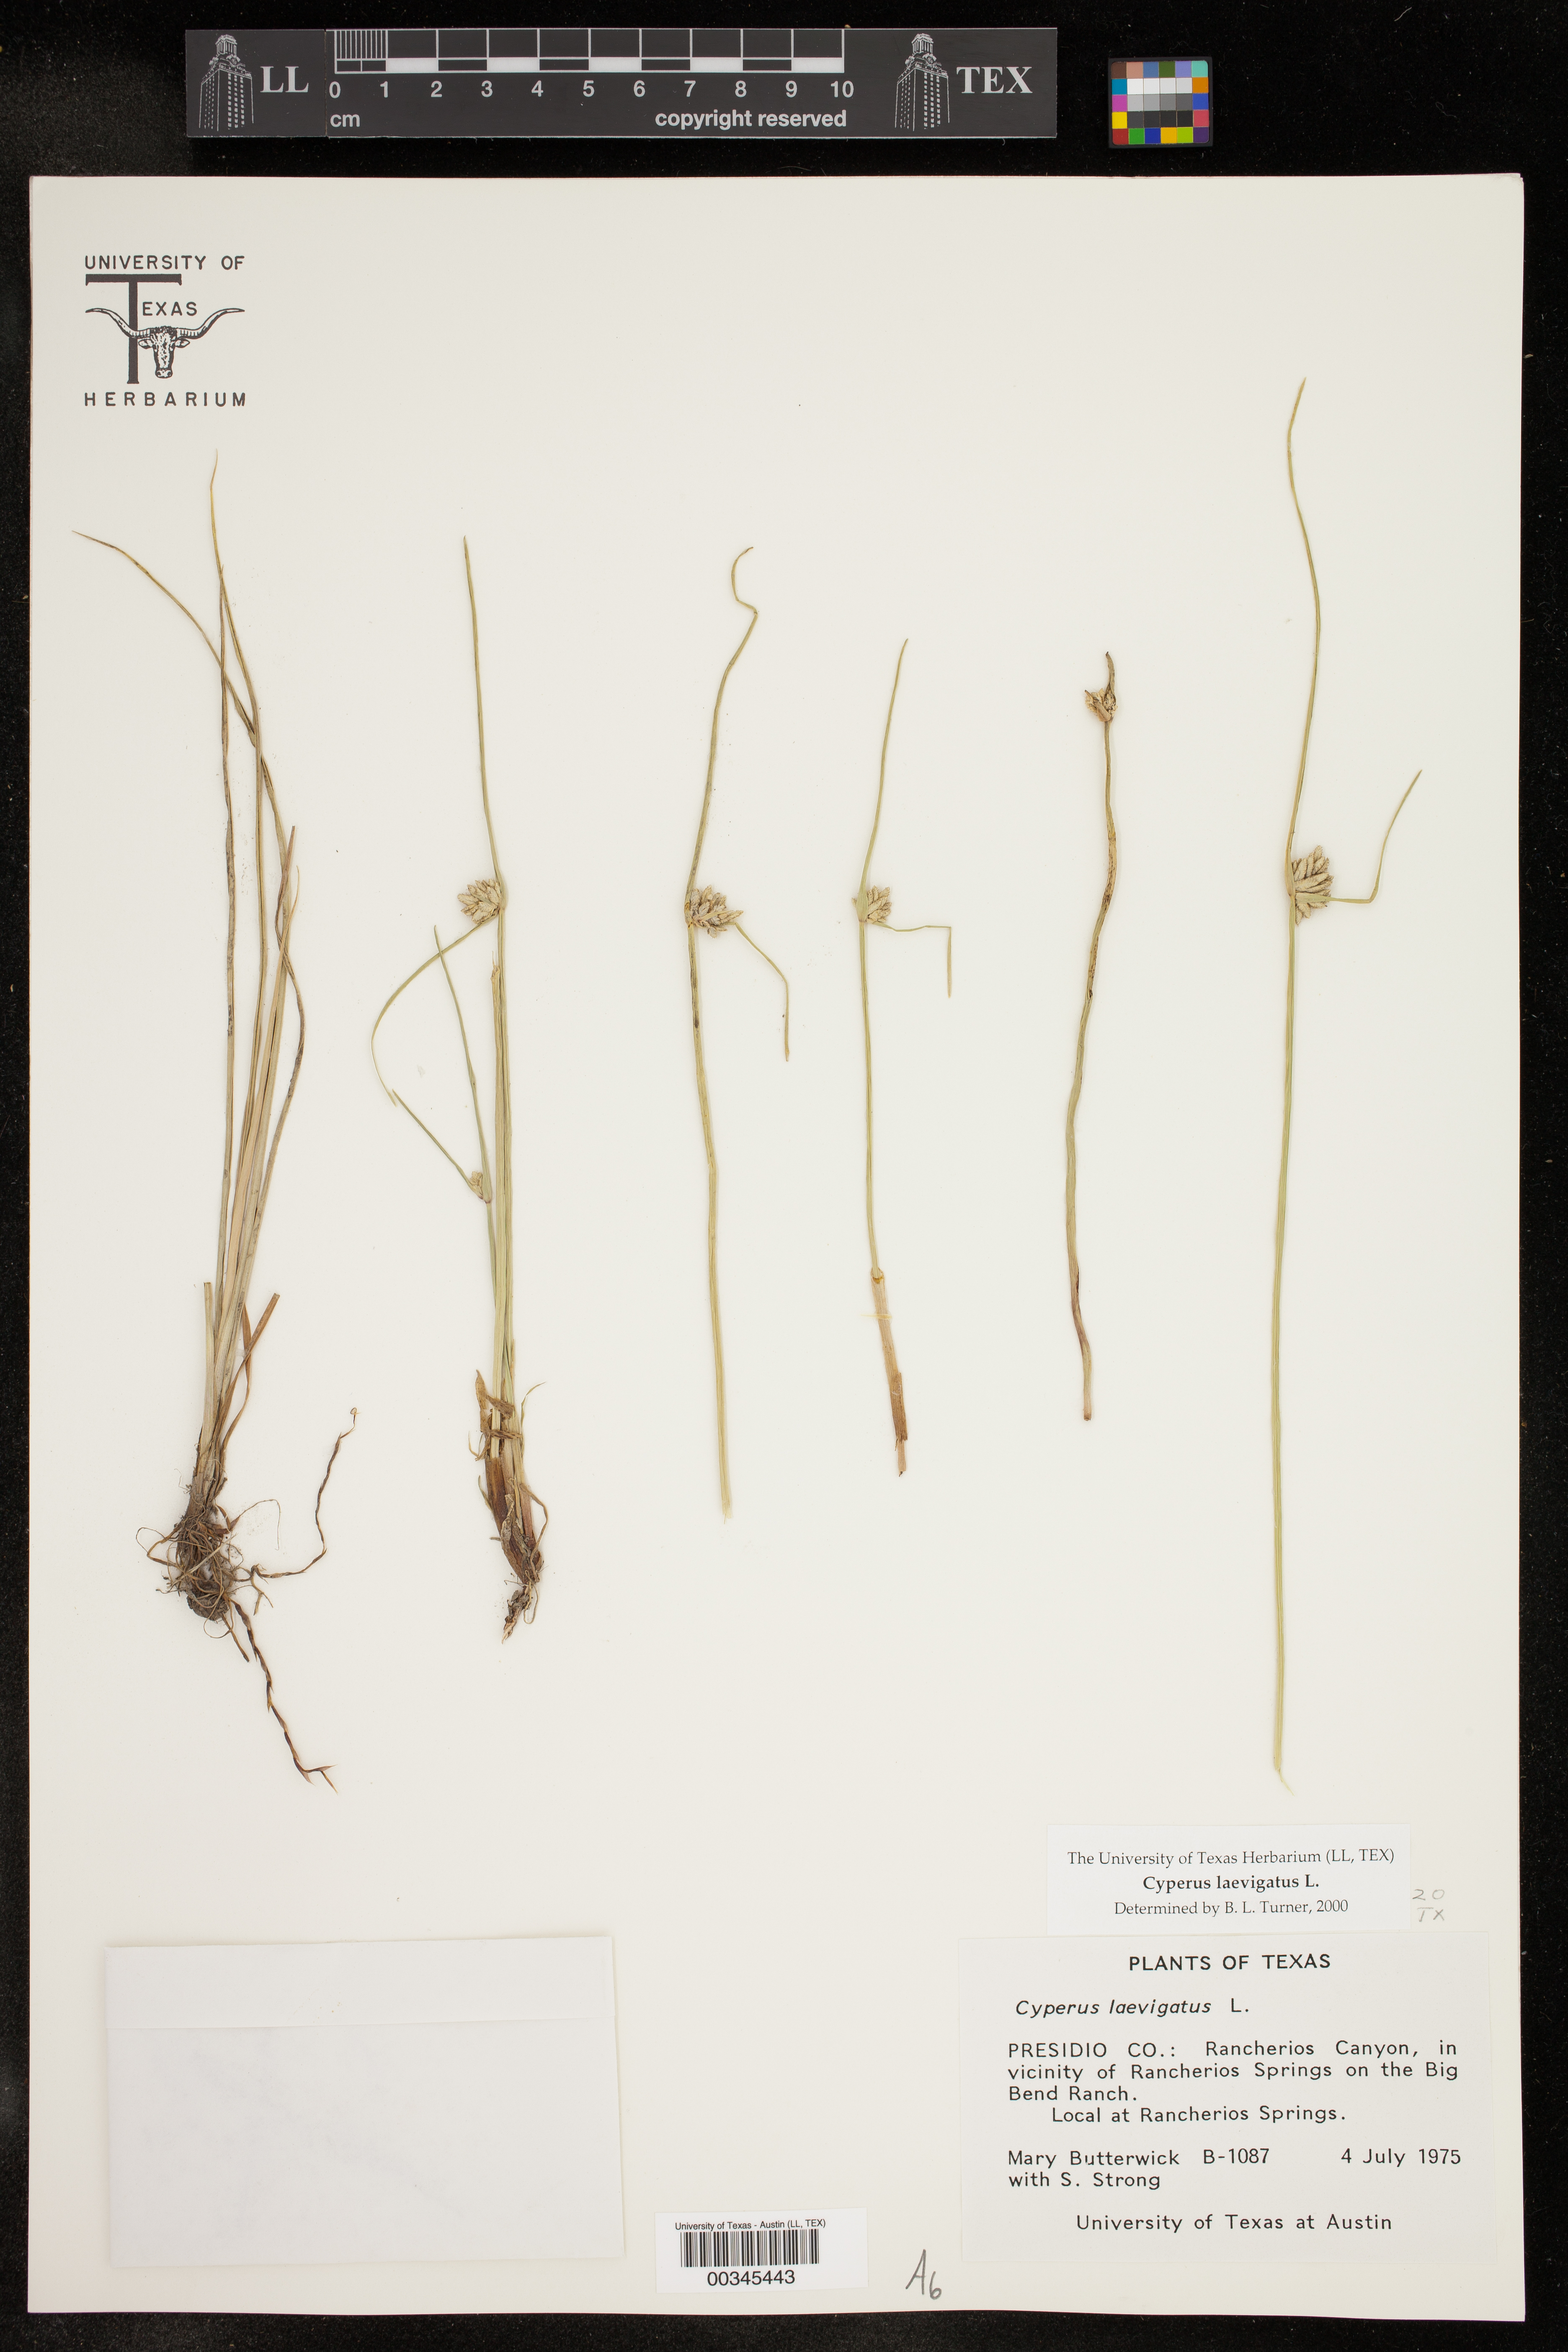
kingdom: Plantae
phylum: Tracheophyta
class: Liliopsida
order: Poales
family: Cyperaceae
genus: Cyperus
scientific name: Cyperus laevigatus
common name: Smooth flat sedge
